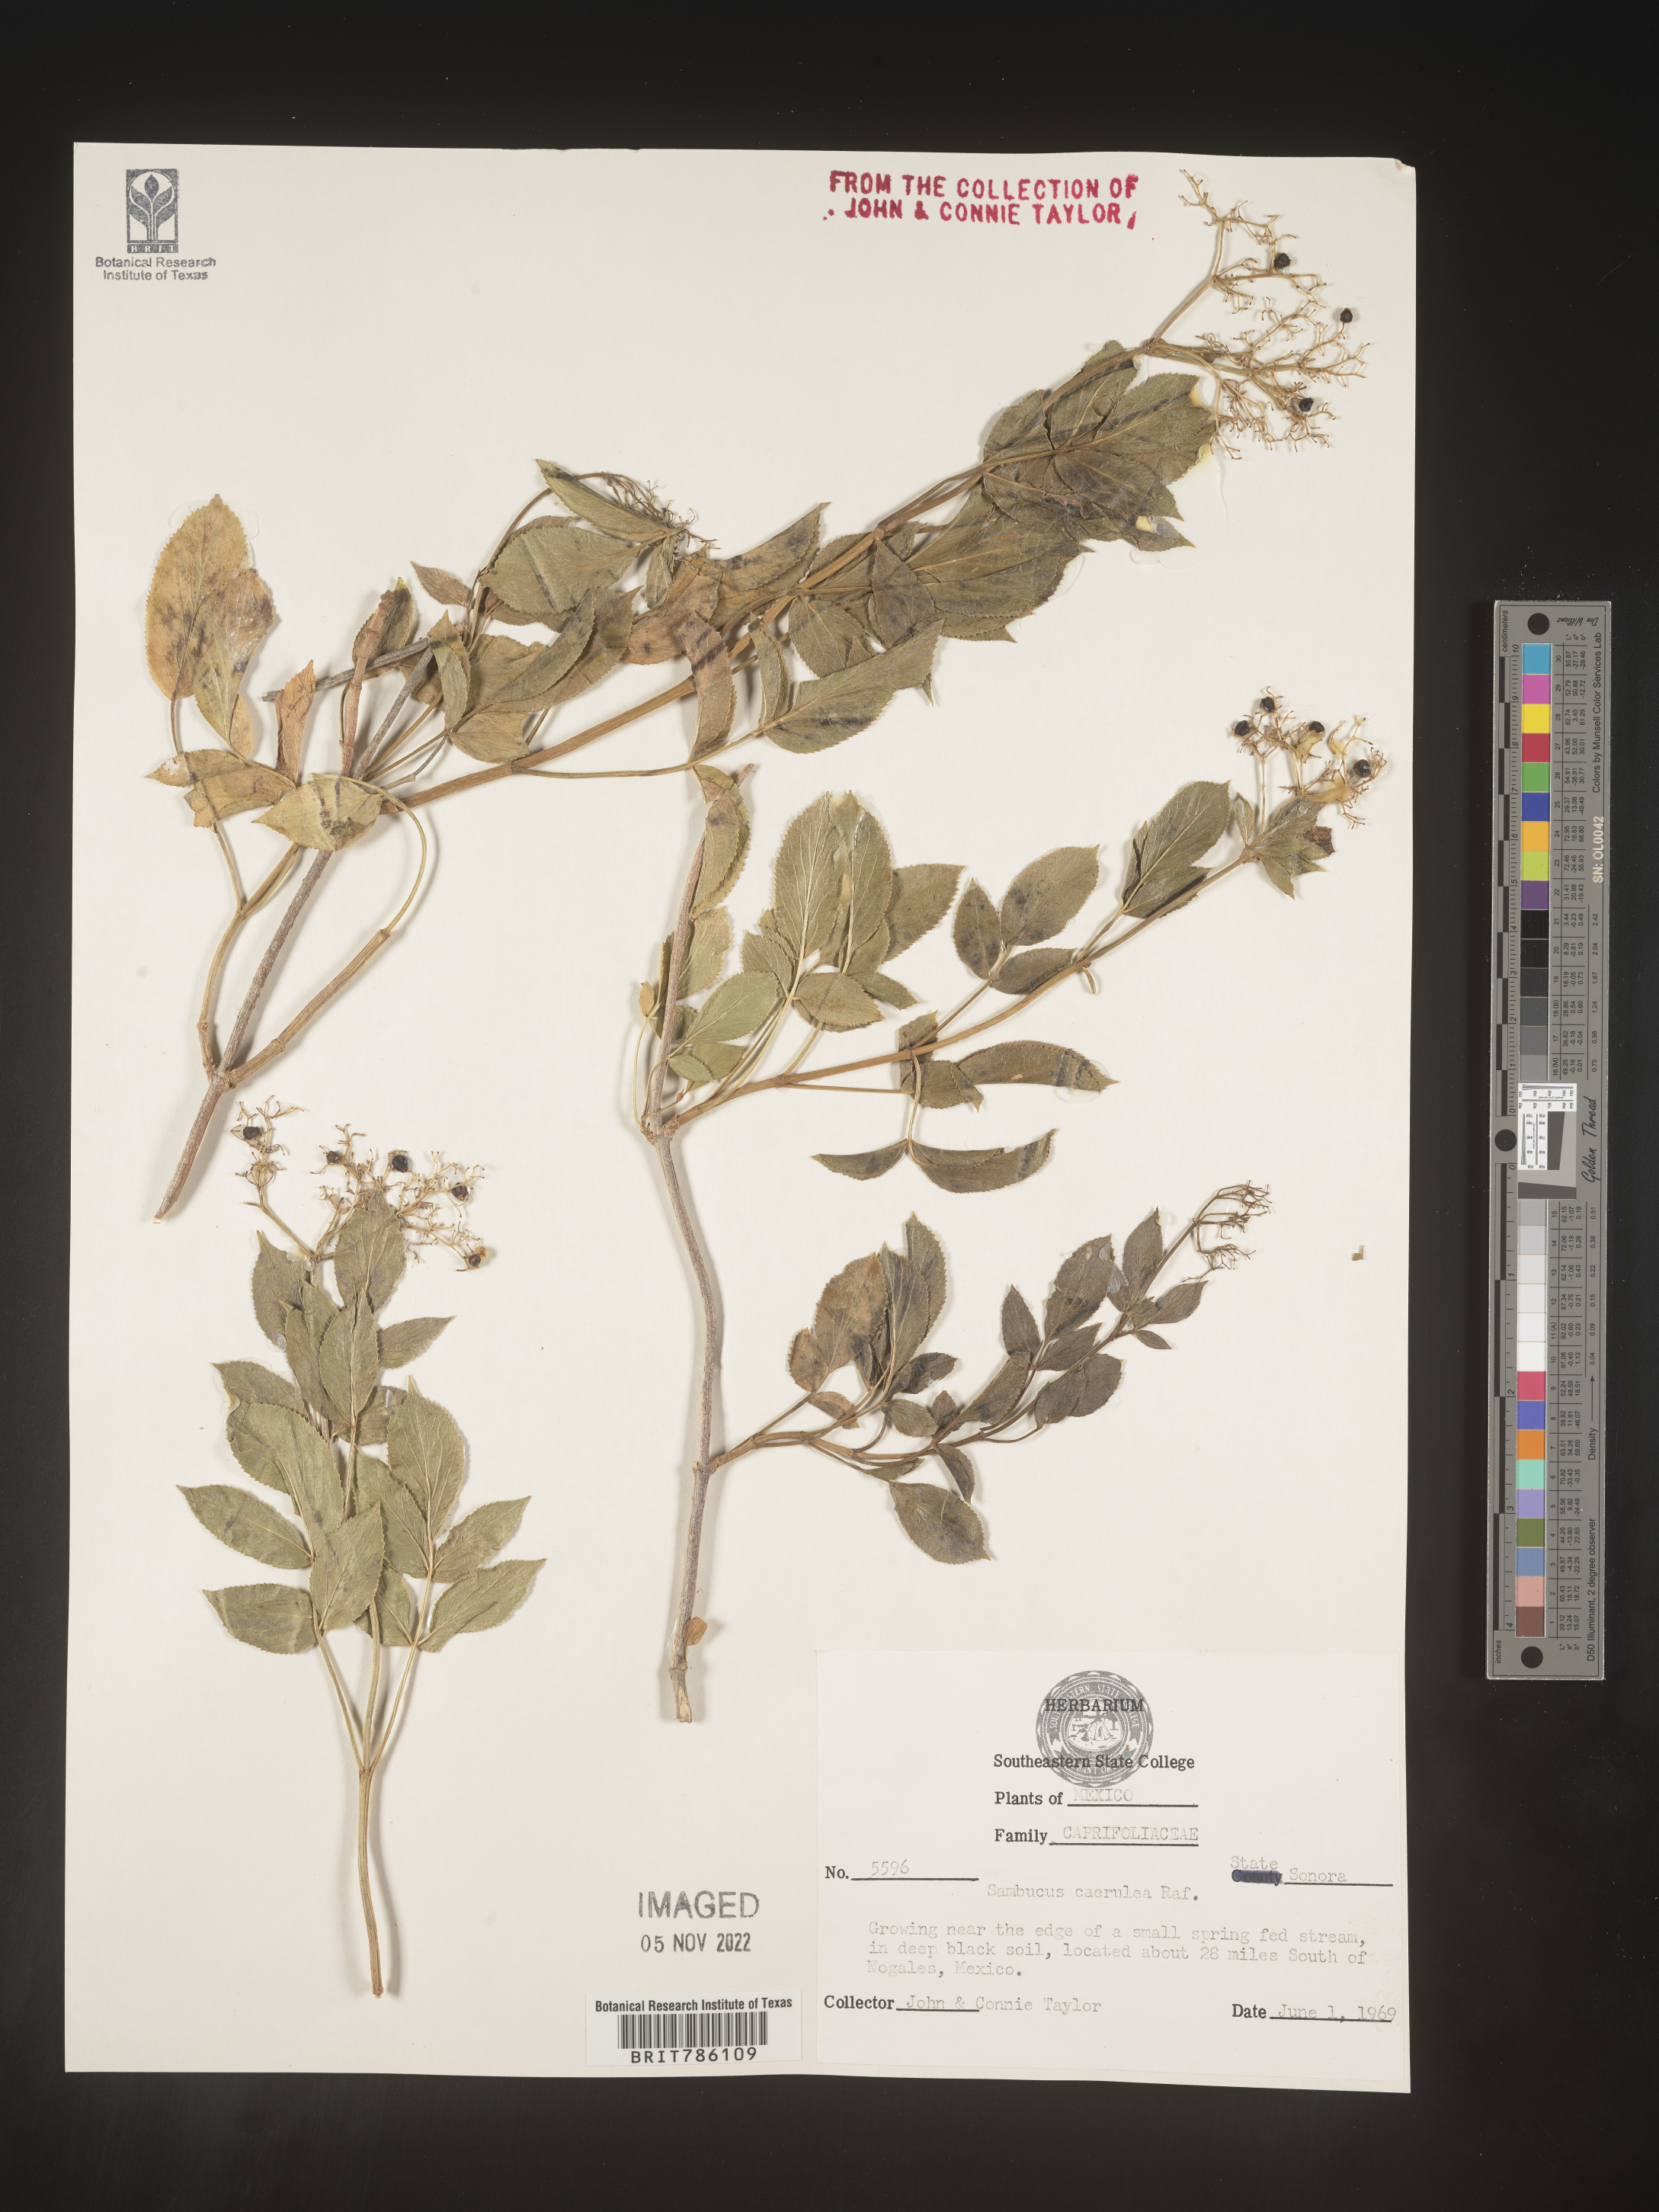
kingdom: Plantae
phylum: Tracheophyta
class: Magnoliopsida
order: Dipsacales
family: Viburnaceae
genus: Sambucus
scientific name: Sambucus
